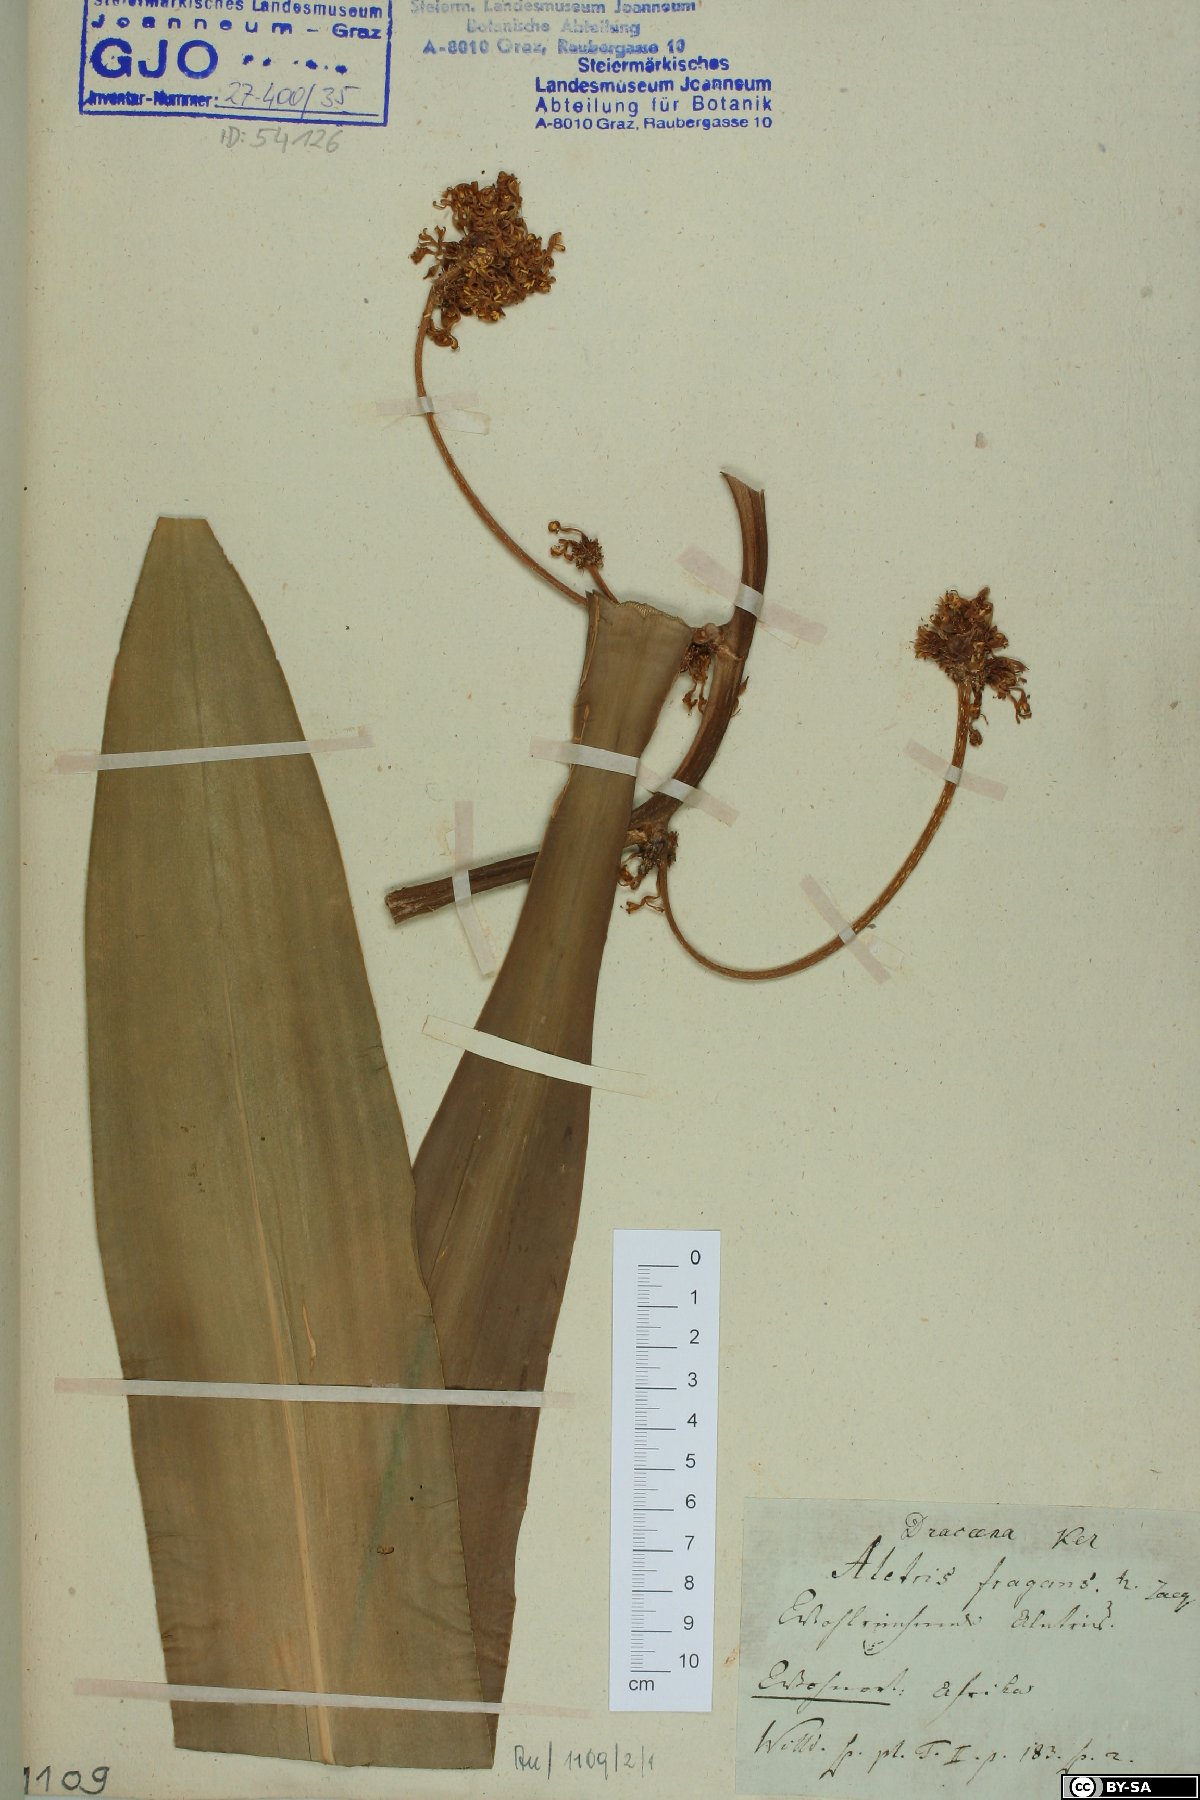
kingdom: Plantae
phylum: Tracheophyta
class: Liliopsida
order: Asparagales
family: Asparagaceae
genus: Dracaena
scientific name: Dracaena fragrans
